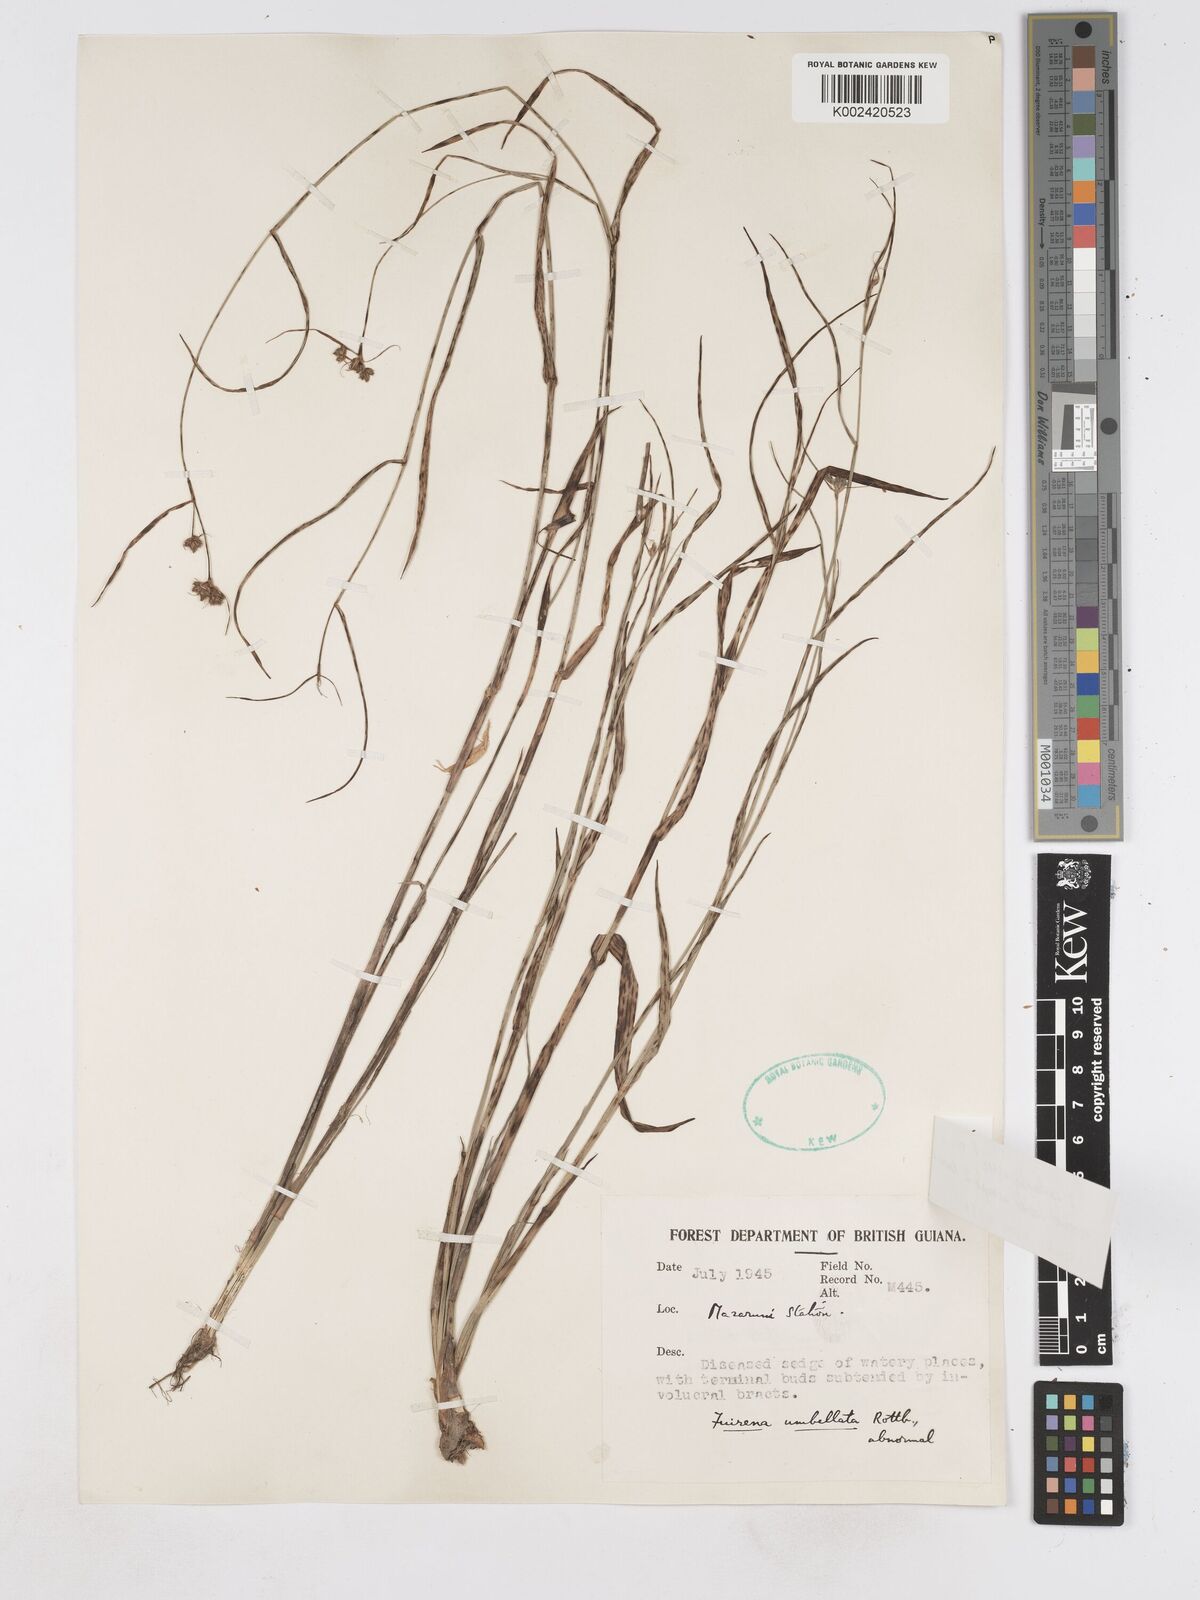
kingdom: Plantae
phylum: Tracheophyta
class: Liliopsida
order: Poales
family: Cyperaceae
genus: Fuirena
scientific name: Fuirena umbellata
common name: Yefen
